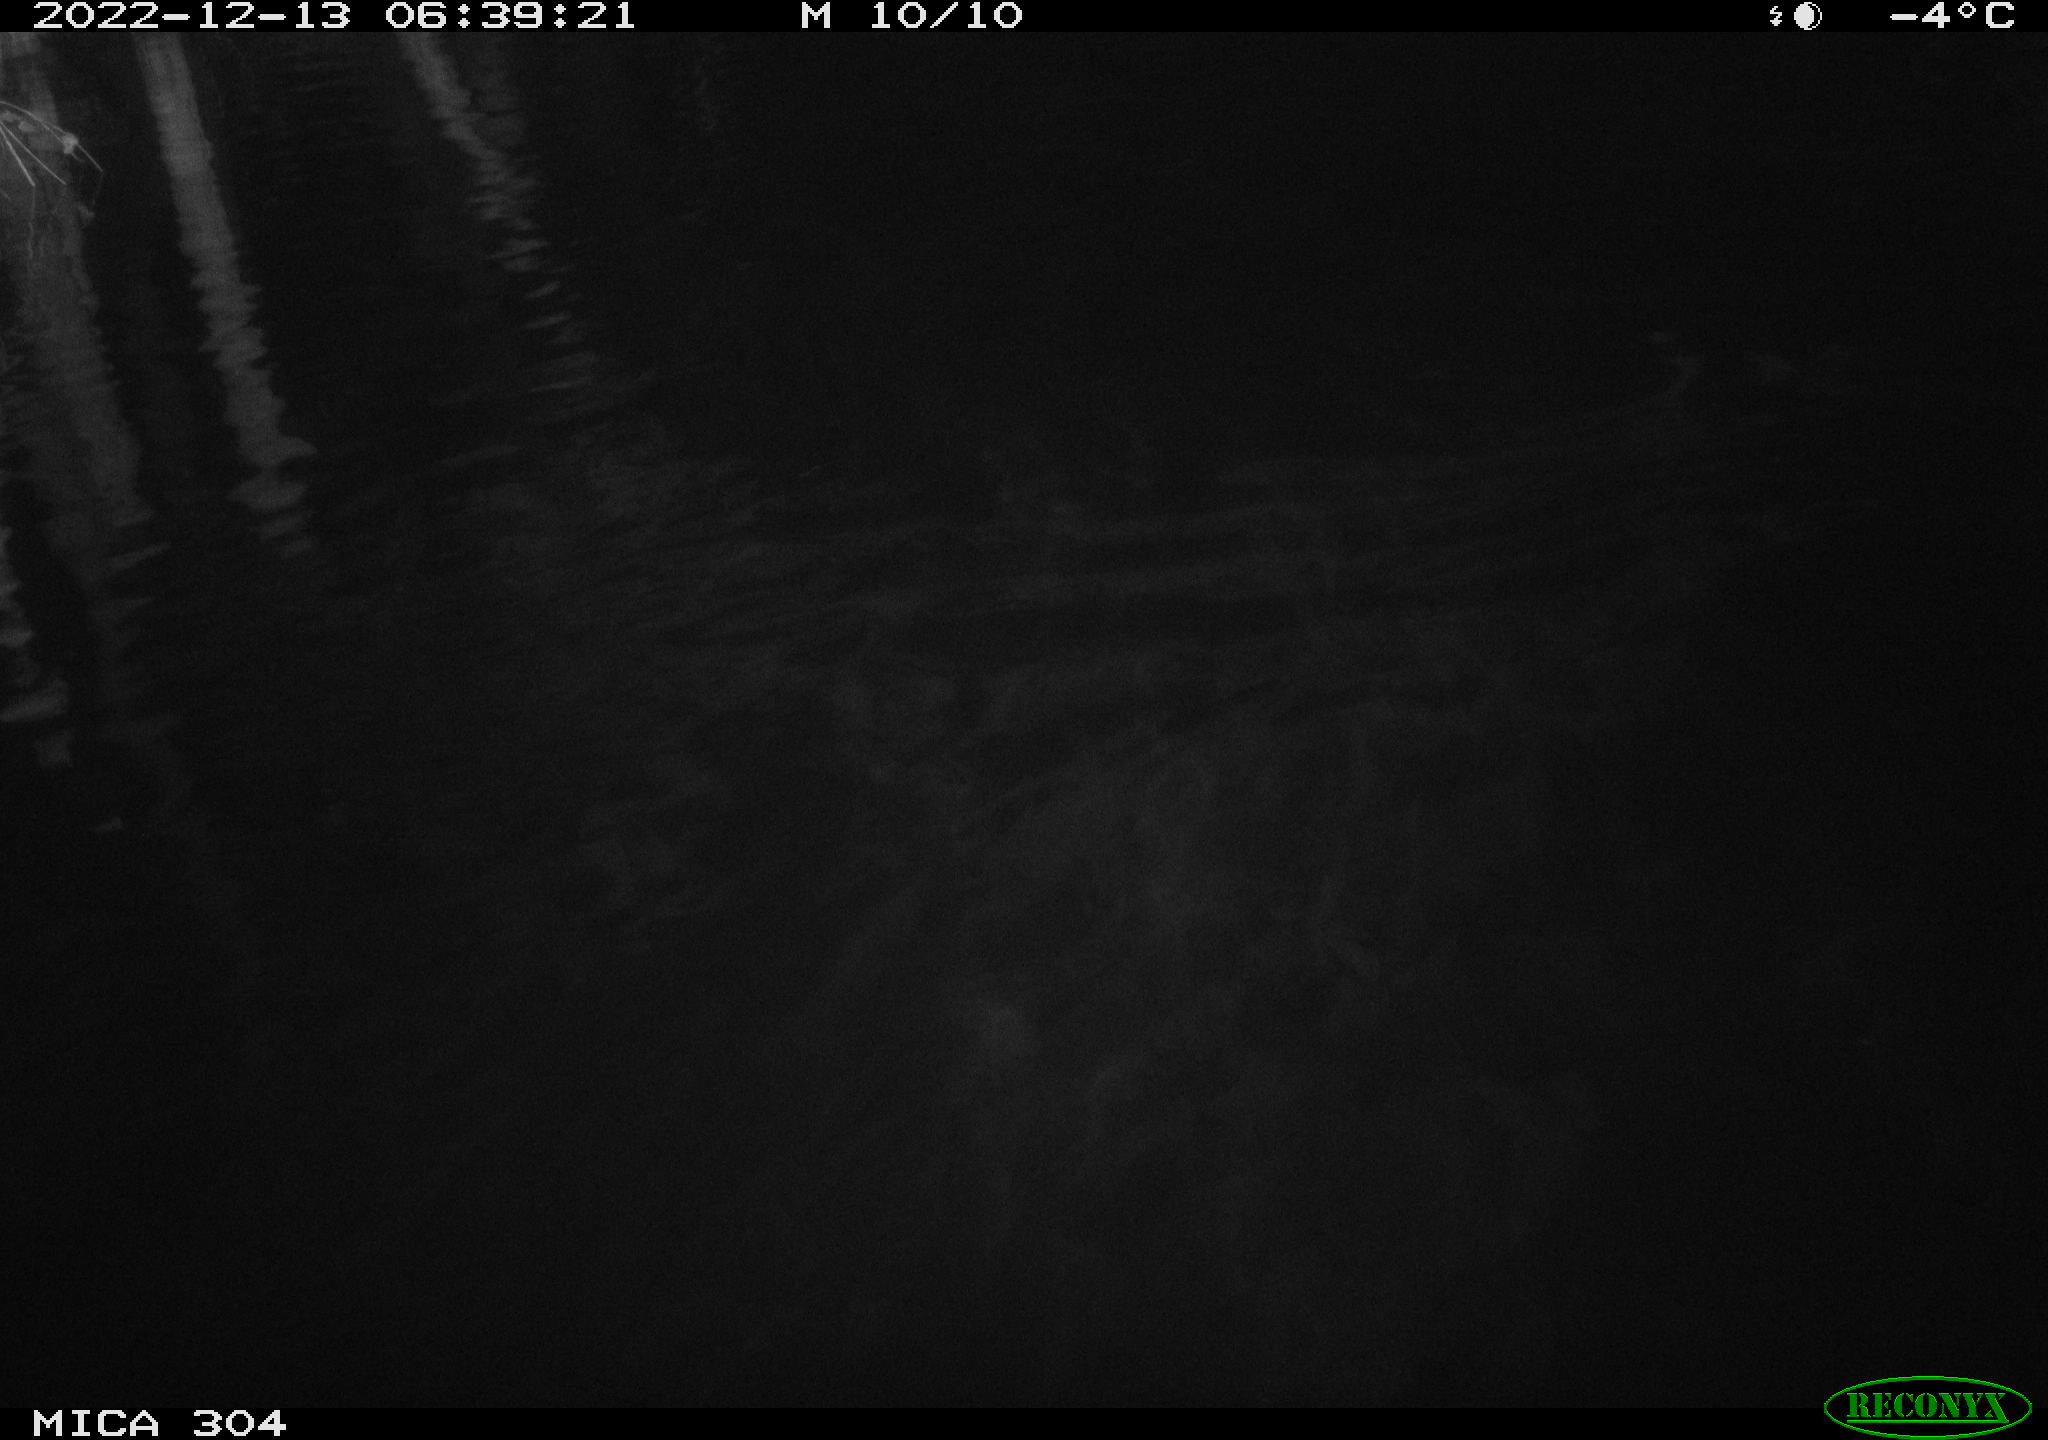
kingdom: Animalia
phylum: Chordata
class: Aves
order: Anseriformes
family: Anatidae
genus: Anas
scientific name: Anas
